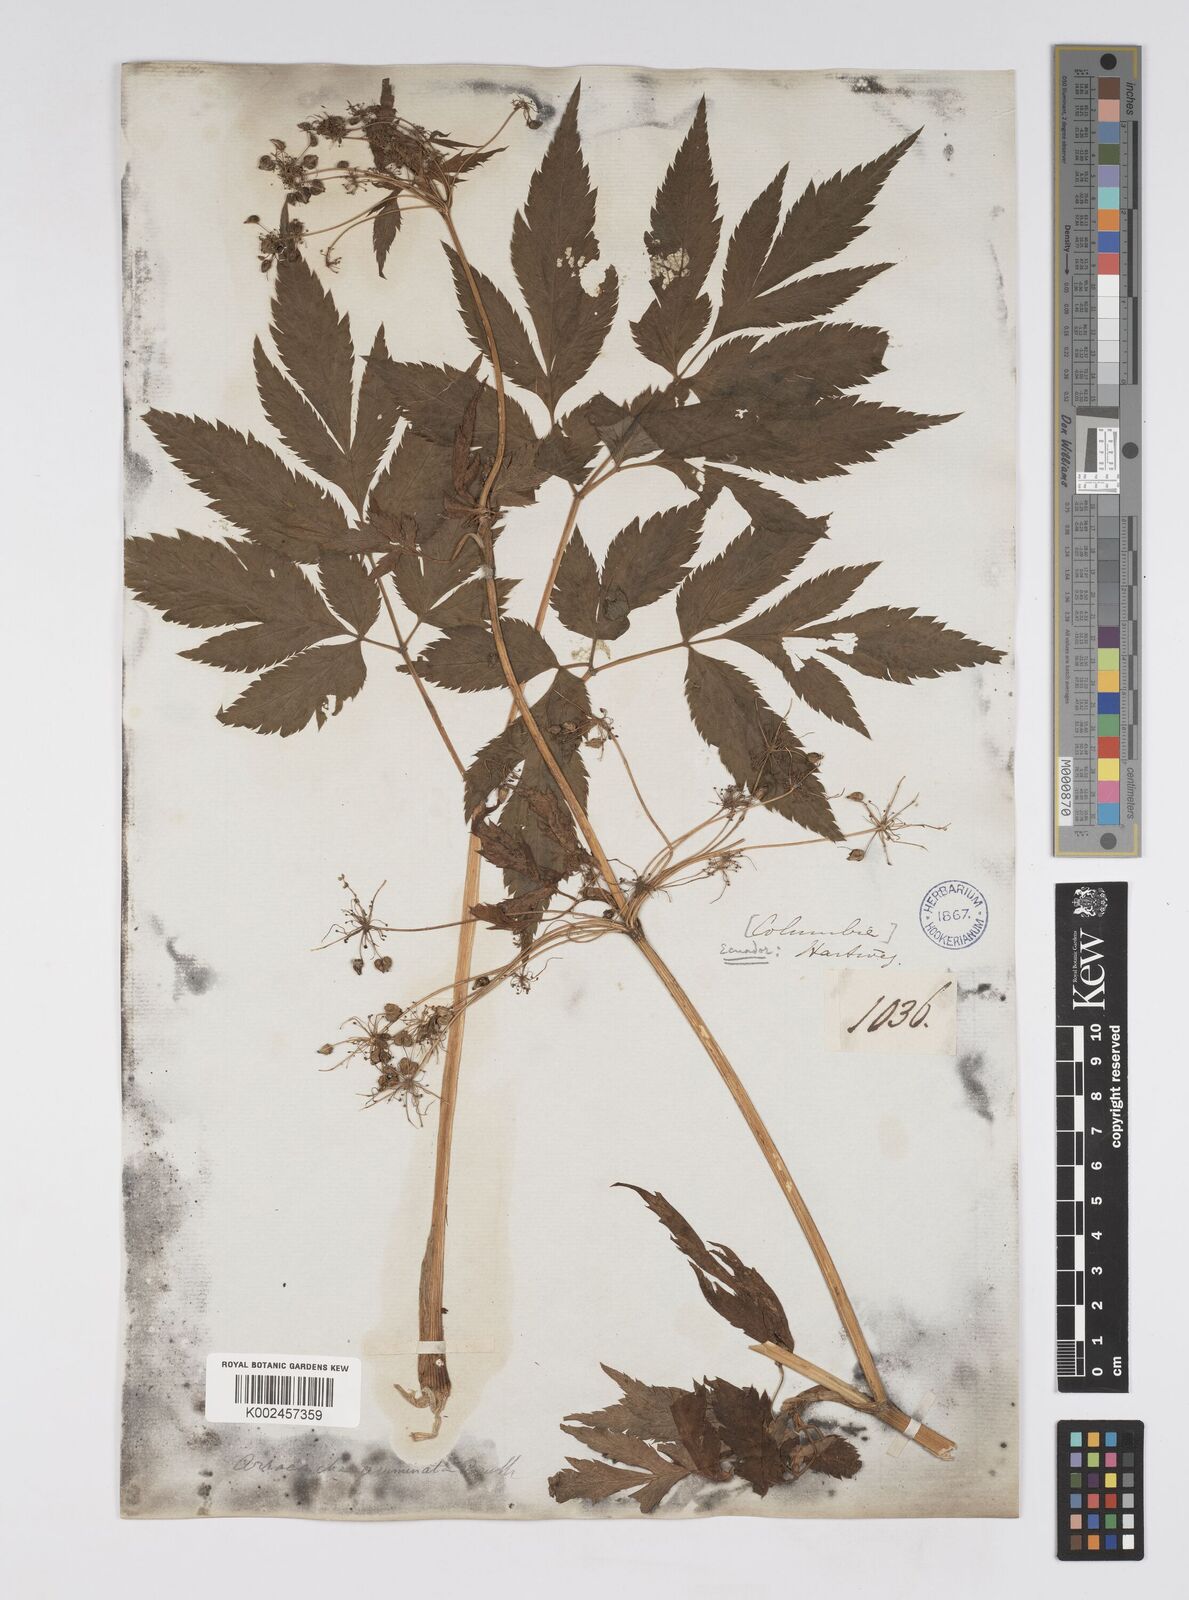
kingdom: Plantae
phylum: Tracheophyta
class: Magnoliopsida
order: Apiales
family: Apiaceae
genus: Neonelsonia
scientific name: Neonelsonia acuminata
